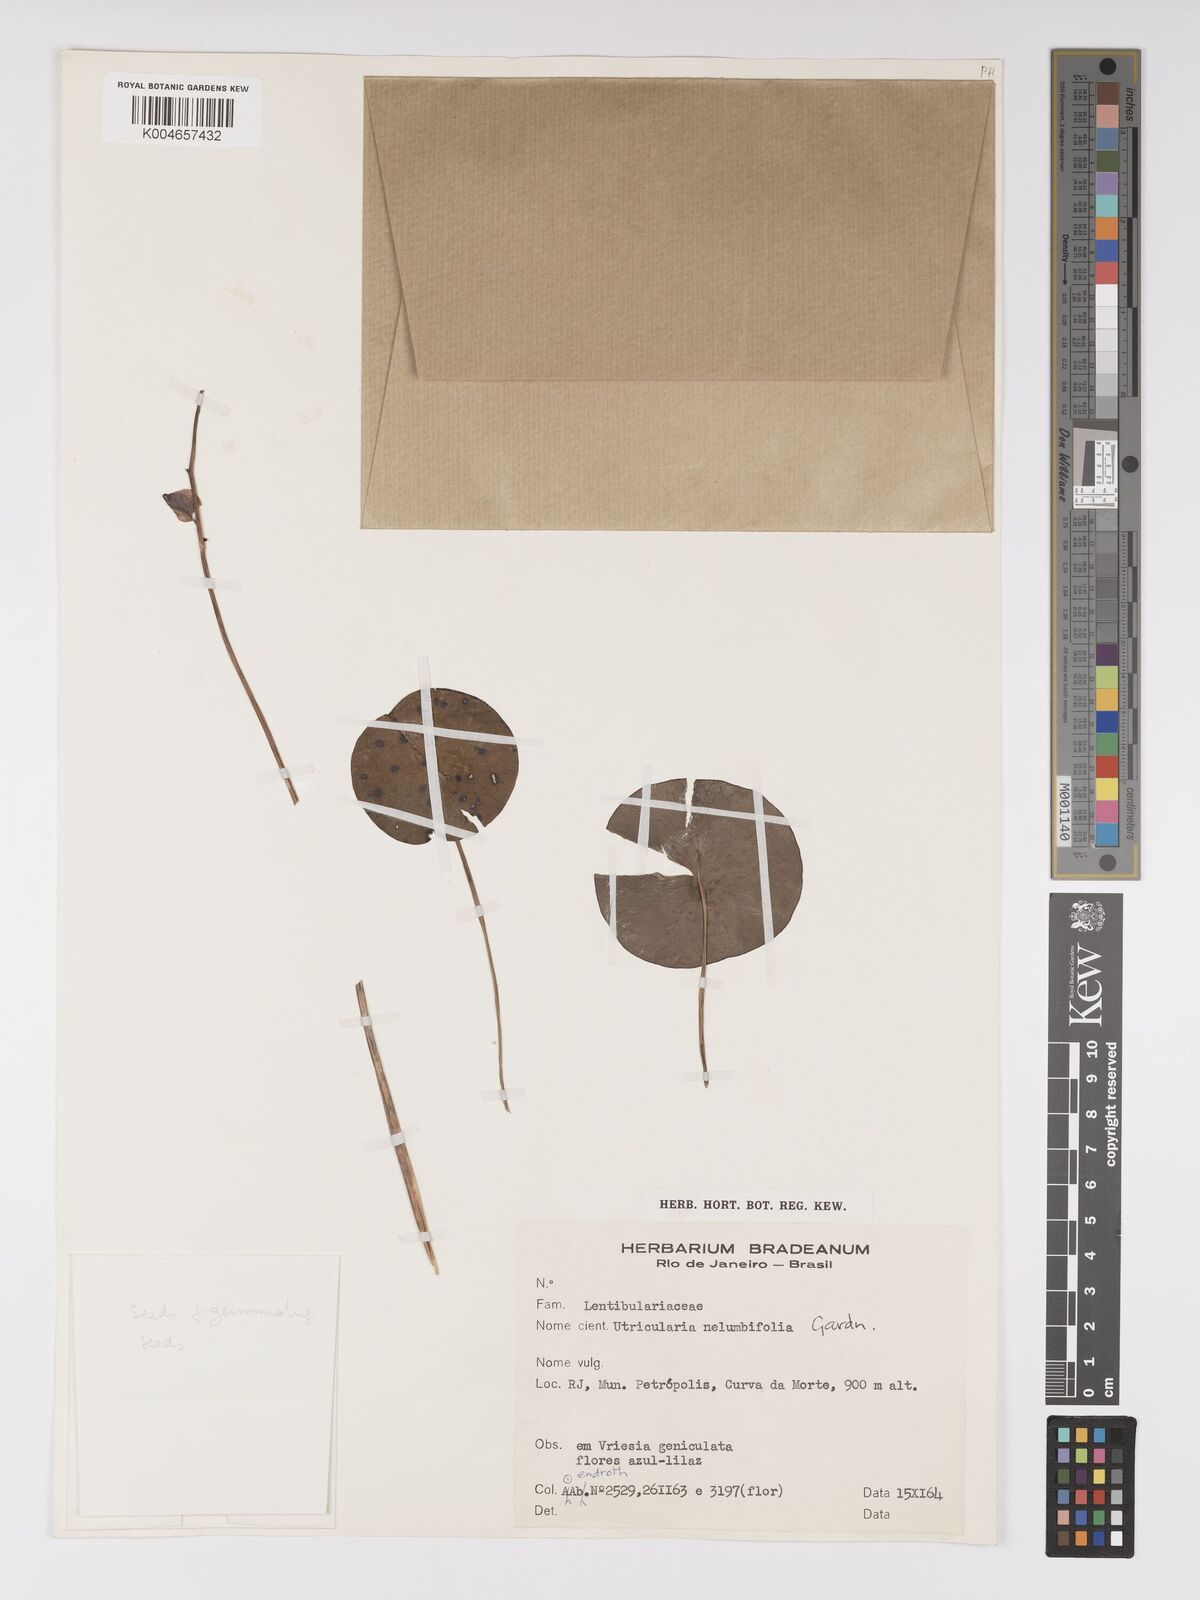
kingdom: Plantae
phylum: Tracheophyta
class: Magnoliopsida
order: Lamiales
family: Lentibulariaceae
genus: Utricularia
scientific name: Utricularia nelumbifolia
